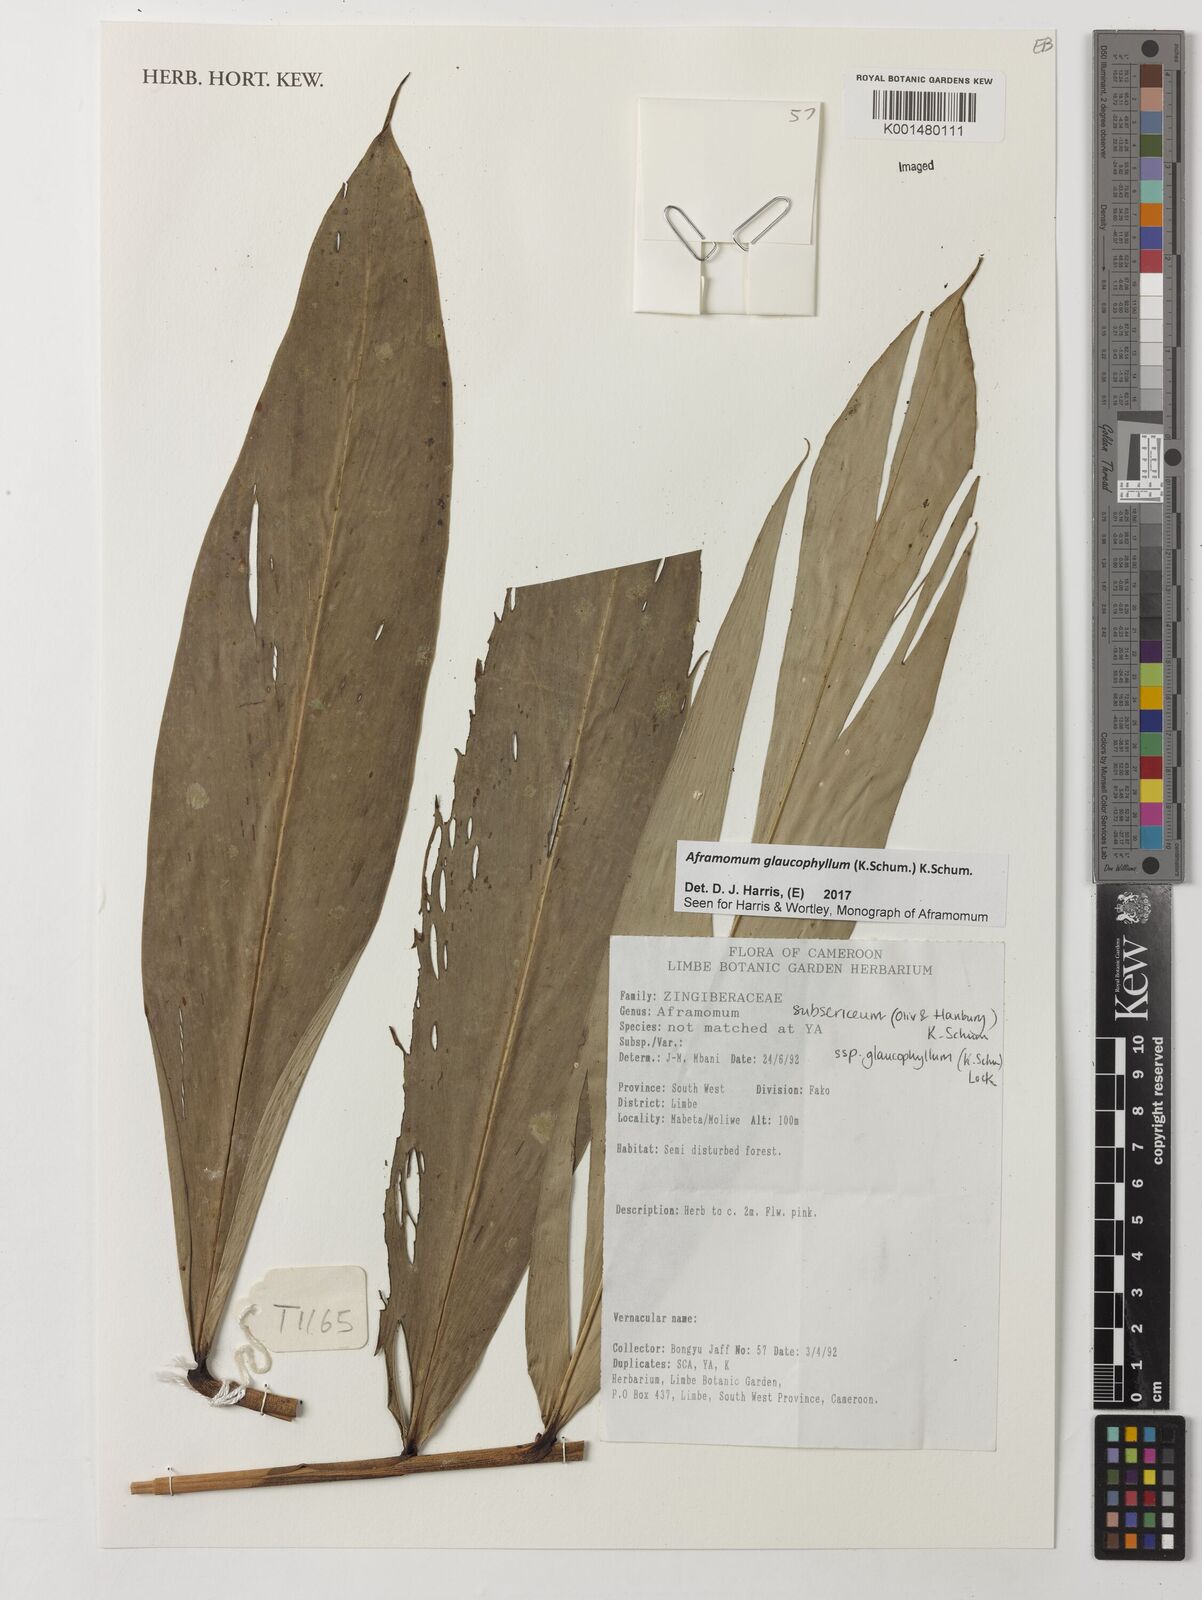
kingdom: Plantae
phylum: Tracheophyta
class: Liliopsida
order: Zingiberales
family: Zingiberaceae
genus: Aframomum
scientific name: Aframomum glaucophyllum
